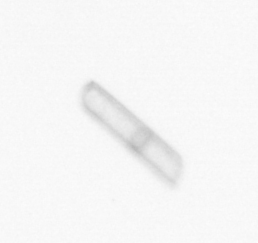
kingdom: Chromista
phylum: Ochrophyta
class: Bacillariophyceae
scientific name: Bacillariophyceae
